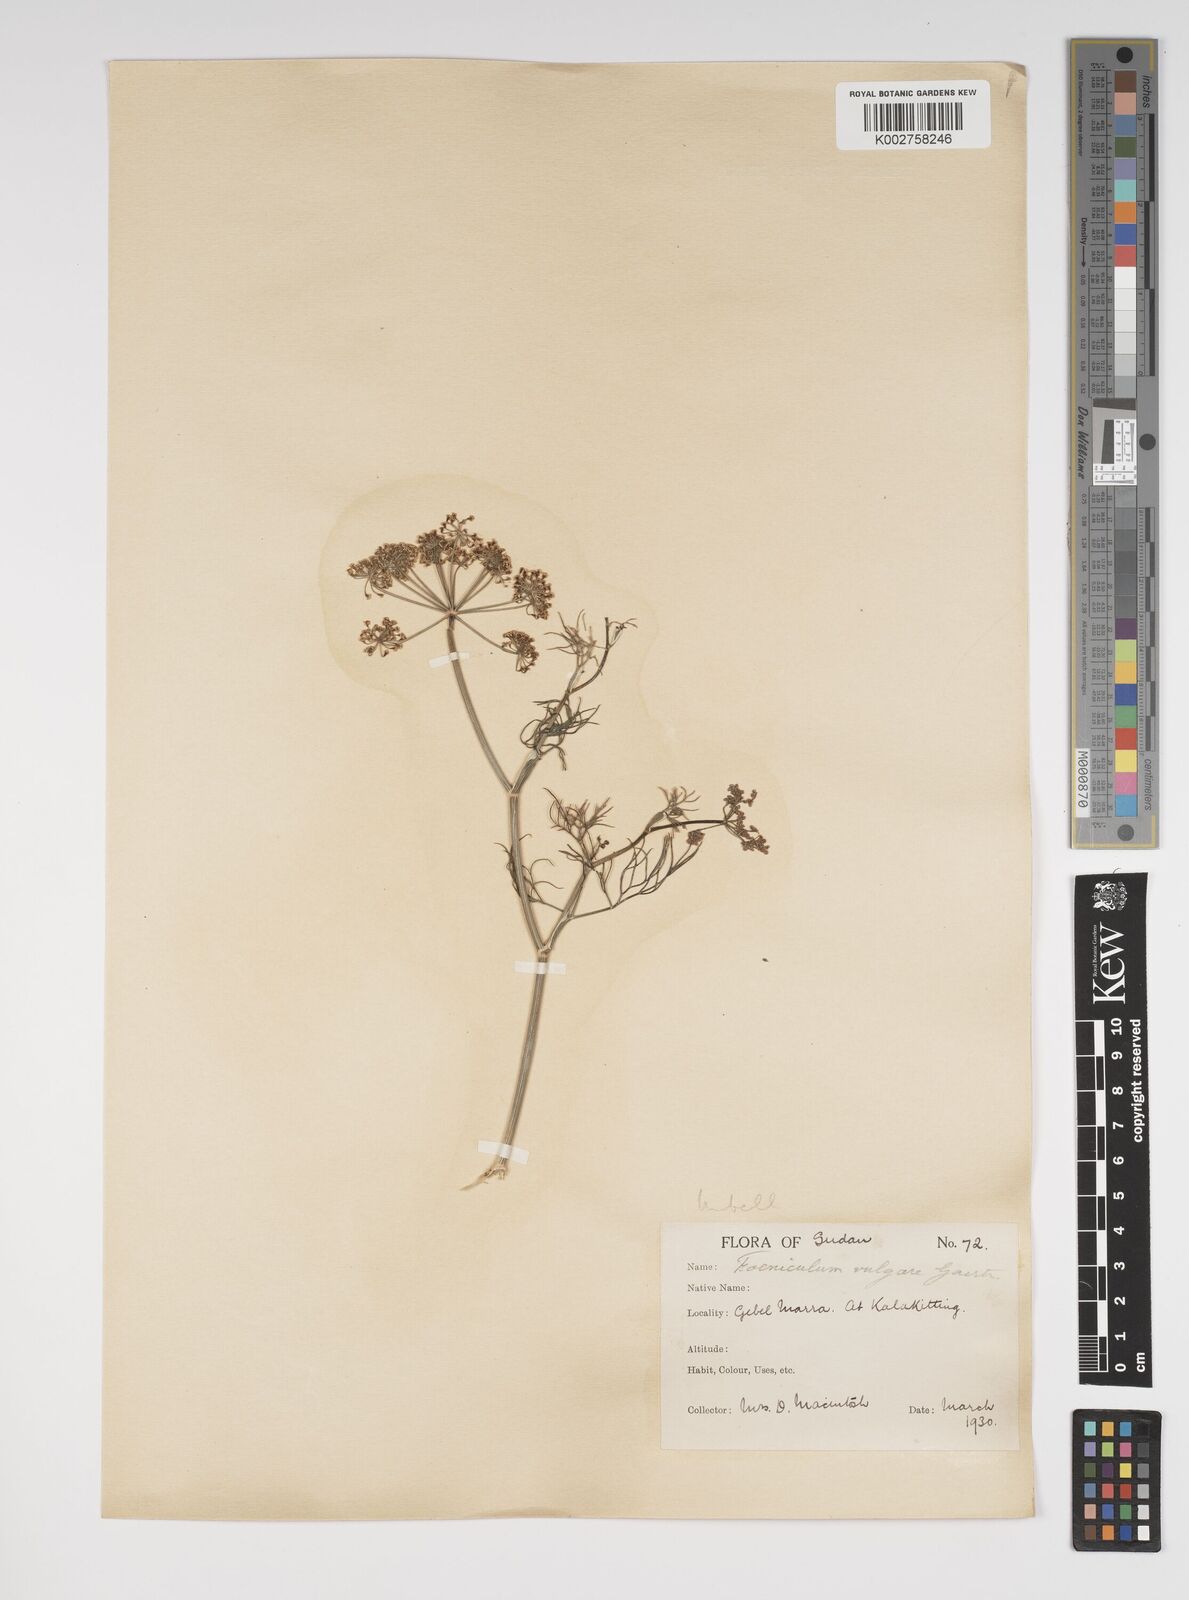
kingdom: Plantae
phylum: Tracheophyta
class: Magnoliopsida
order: Apiales
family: Apiaceae
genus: Foeniculum
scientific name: Foeniculum vulgare
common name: Fennel
